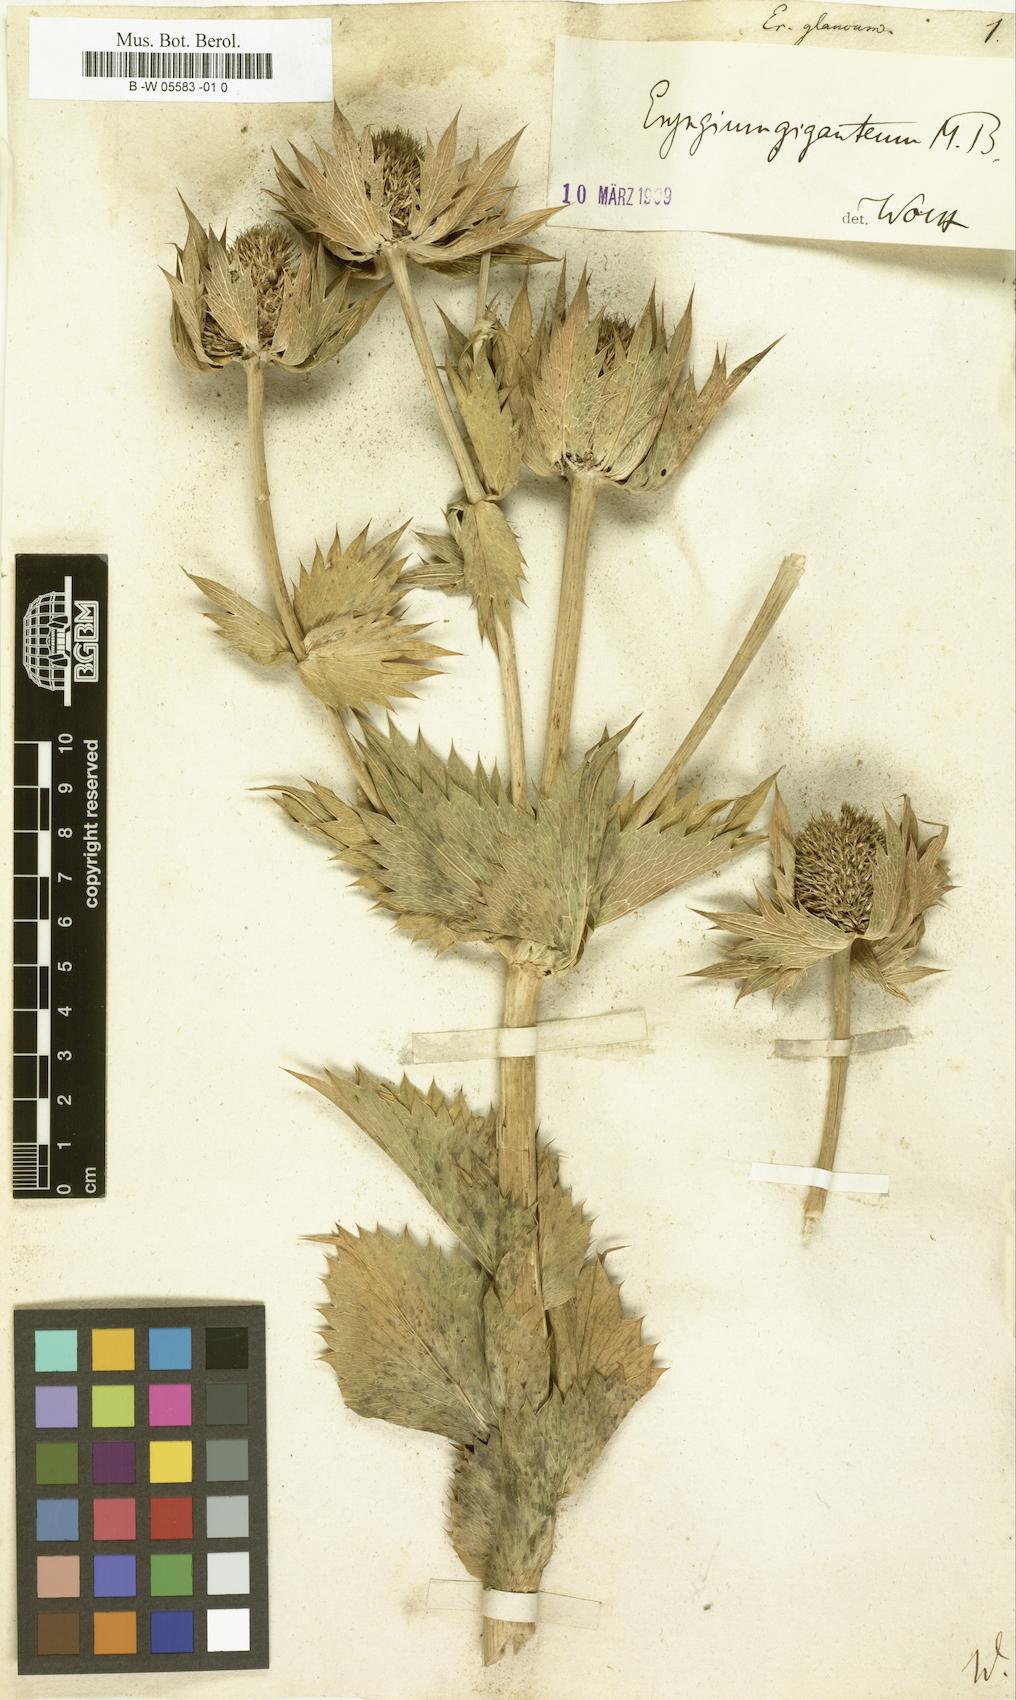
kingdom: Plantae
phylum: Tracheophyta
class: Magnoliopsida
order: Apiales
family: Apiaceae
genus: Eryngium
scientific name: Eryngium giganteum
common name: Tall eryngo
